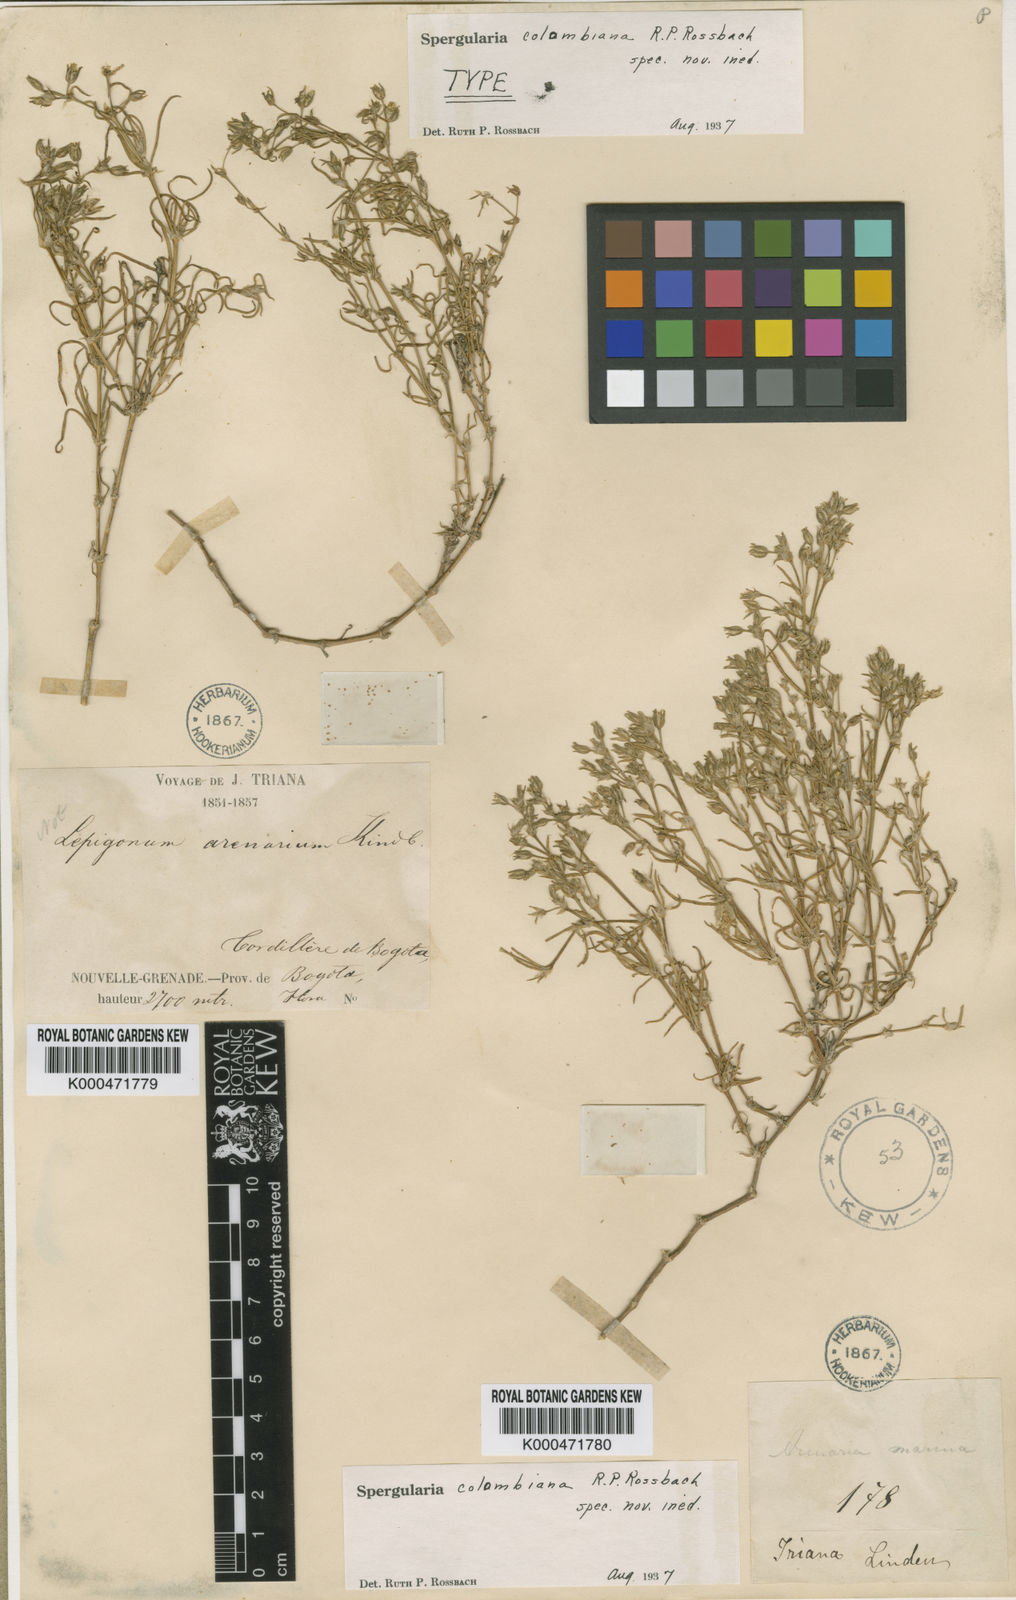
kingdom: Plantae
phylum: Tracheophyta
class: Magnoliopsida
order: Caryophyllales
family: Caryophyllaceae
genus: Spergularia
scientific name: Spergularia colombiana
